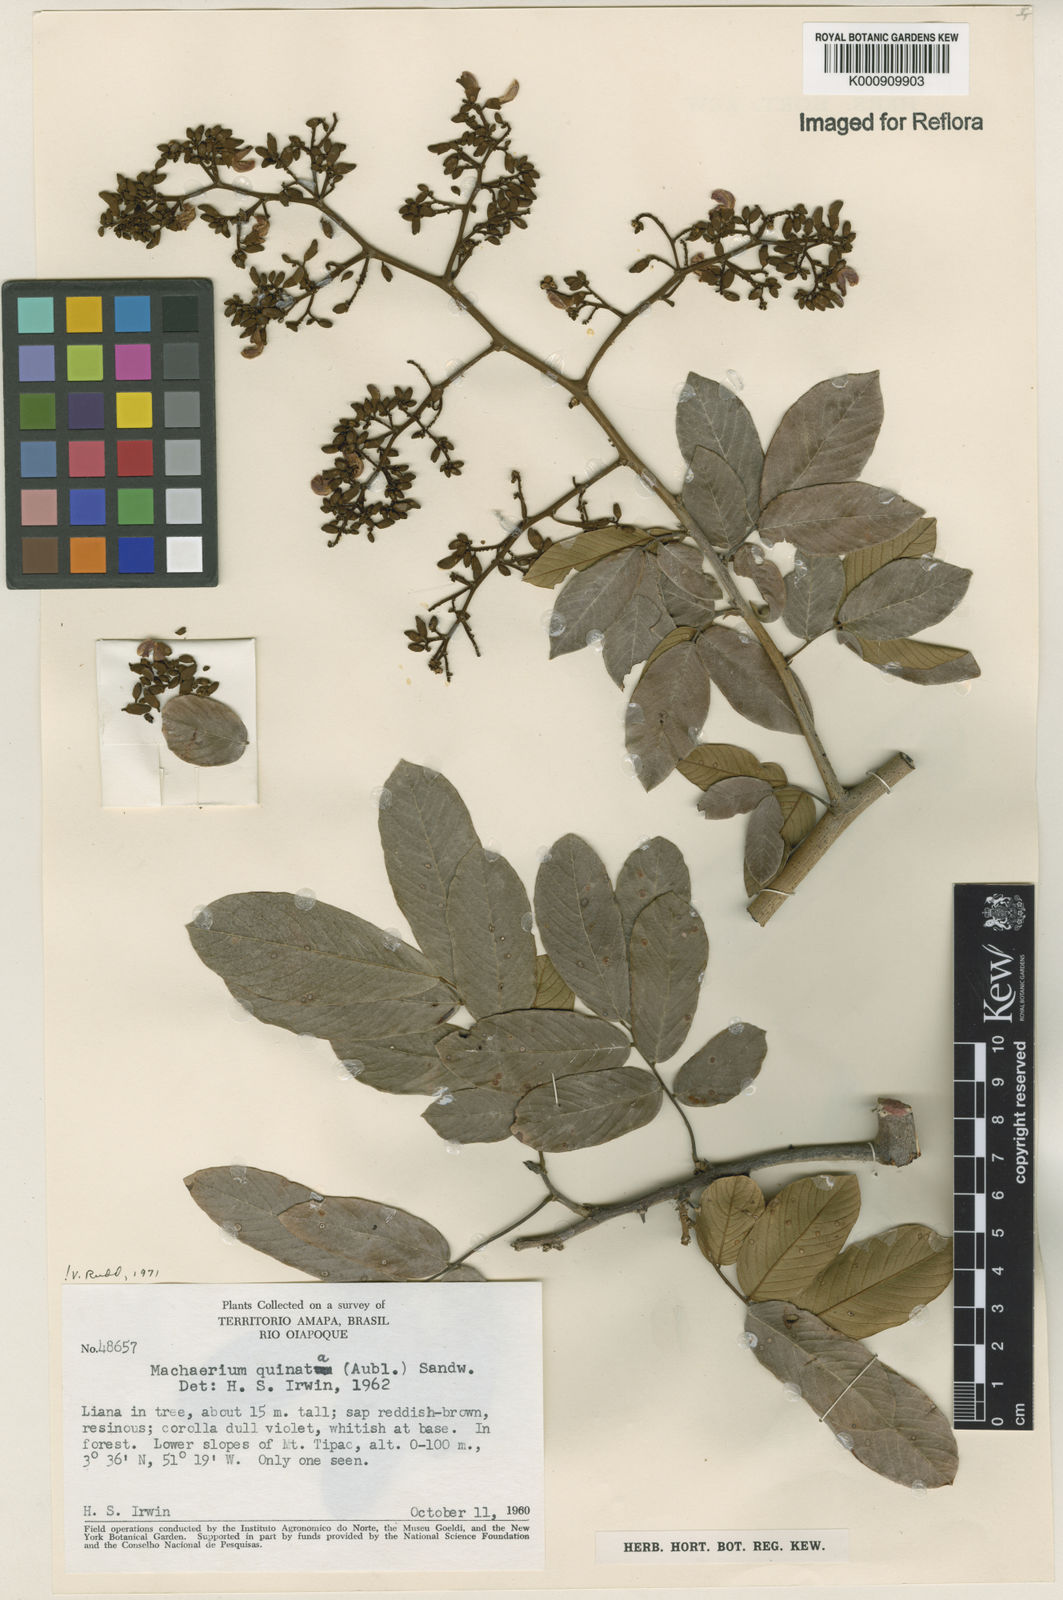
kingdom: Plantae
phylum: Tracheophyta
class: Magnoliopsida
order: Fabales
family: Fabaceae
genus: Machaerium
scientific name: Machaerium quinata
